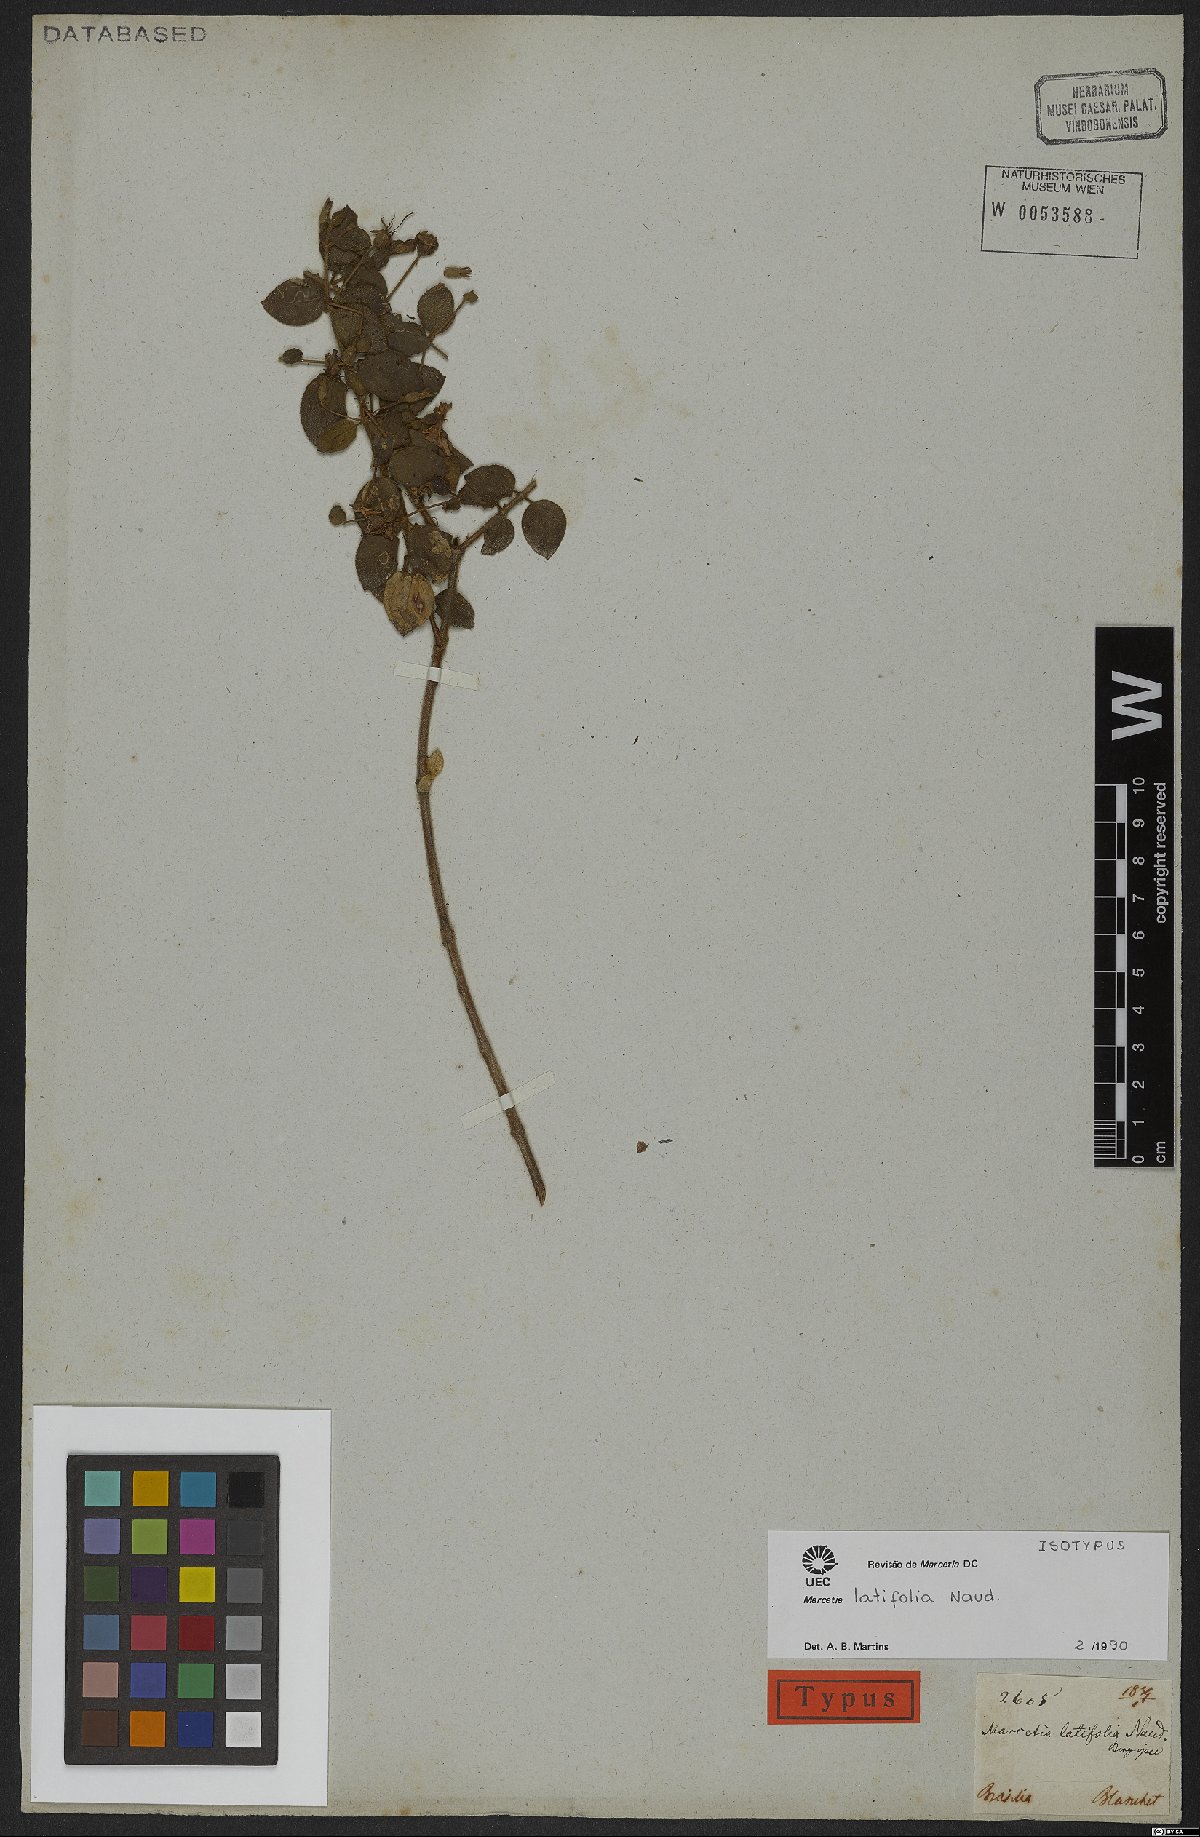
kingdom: Plantae
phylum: Tracheophyta
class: Magnoliopsida
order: Myrtales
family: Melastomataceae
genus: Marcetia
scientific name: Marcetia latifolia
